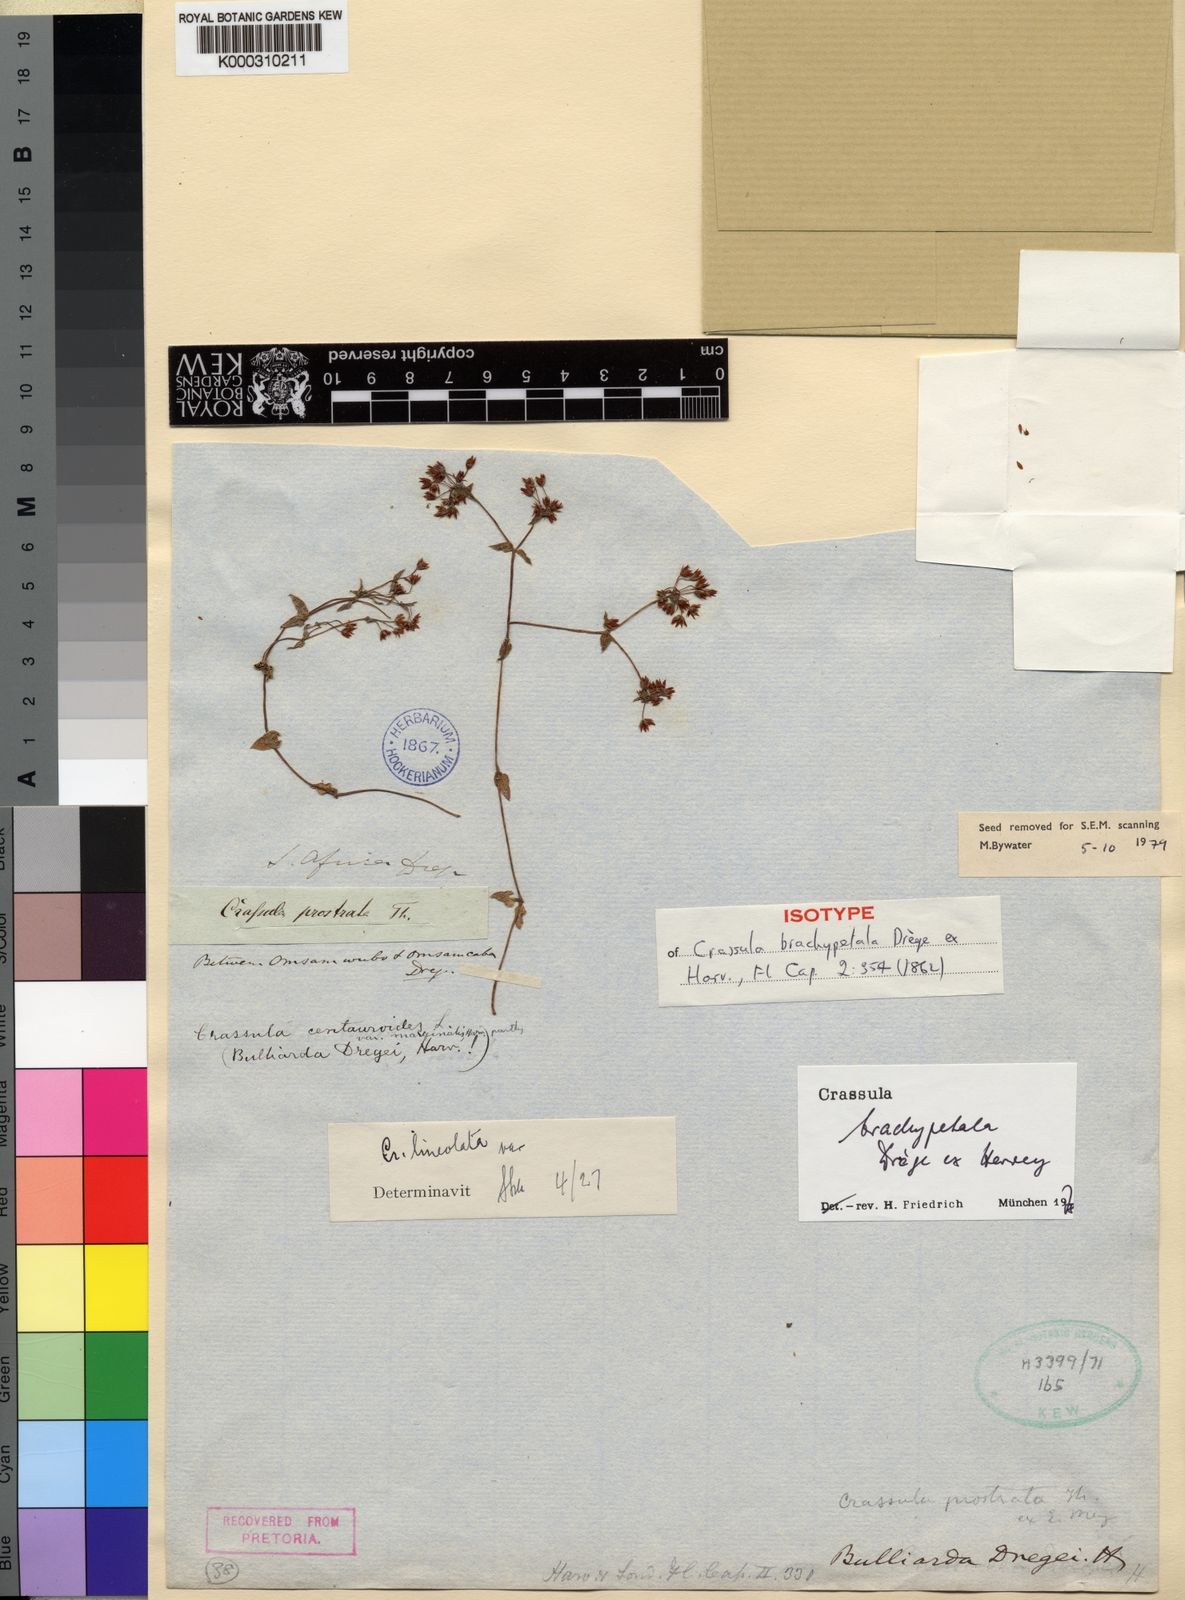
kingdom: Plantae
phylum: Tracheophyta
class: Magnoliopsida
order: Saxifragales
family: Crassulaceae
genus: Crassula
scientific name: Crassula pellucida
